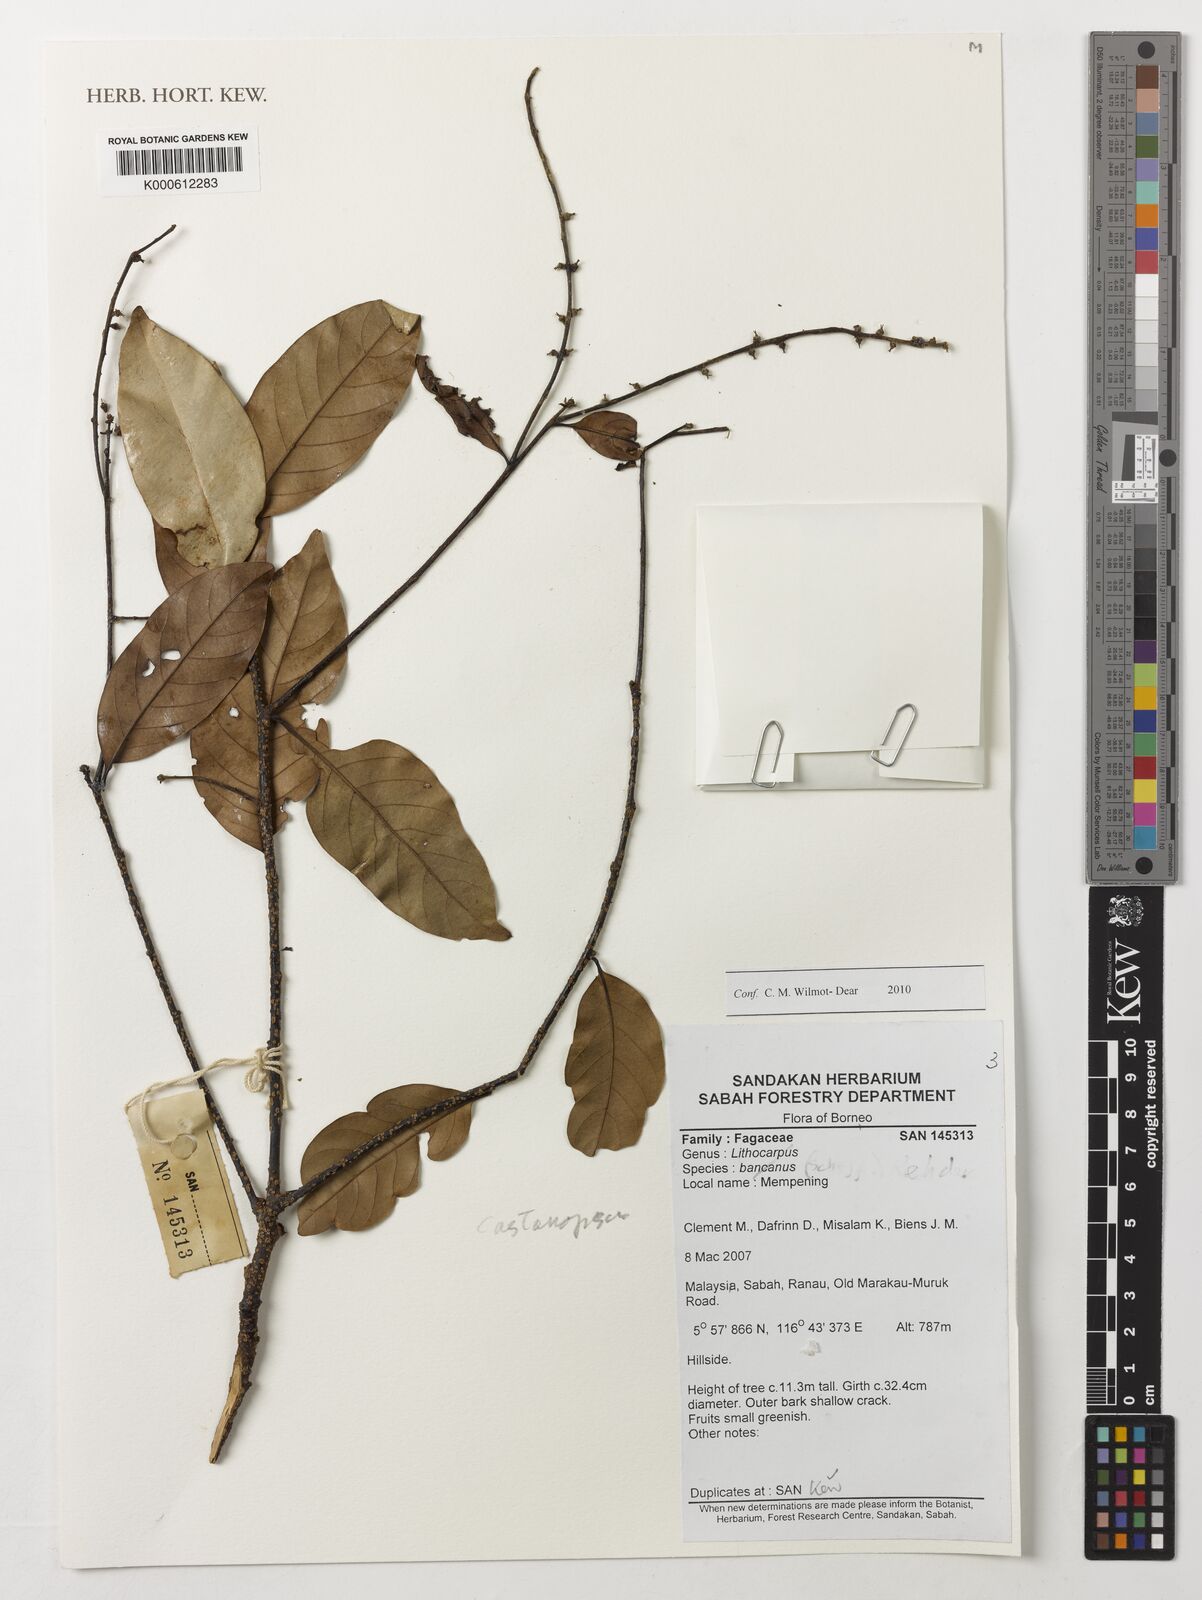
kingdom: Plantae
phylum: Tracheophyta
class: Magnoliopsida
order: Fagales
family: Fagaceae
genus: Lithocarpus
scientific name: Lithocarpus bancanus
